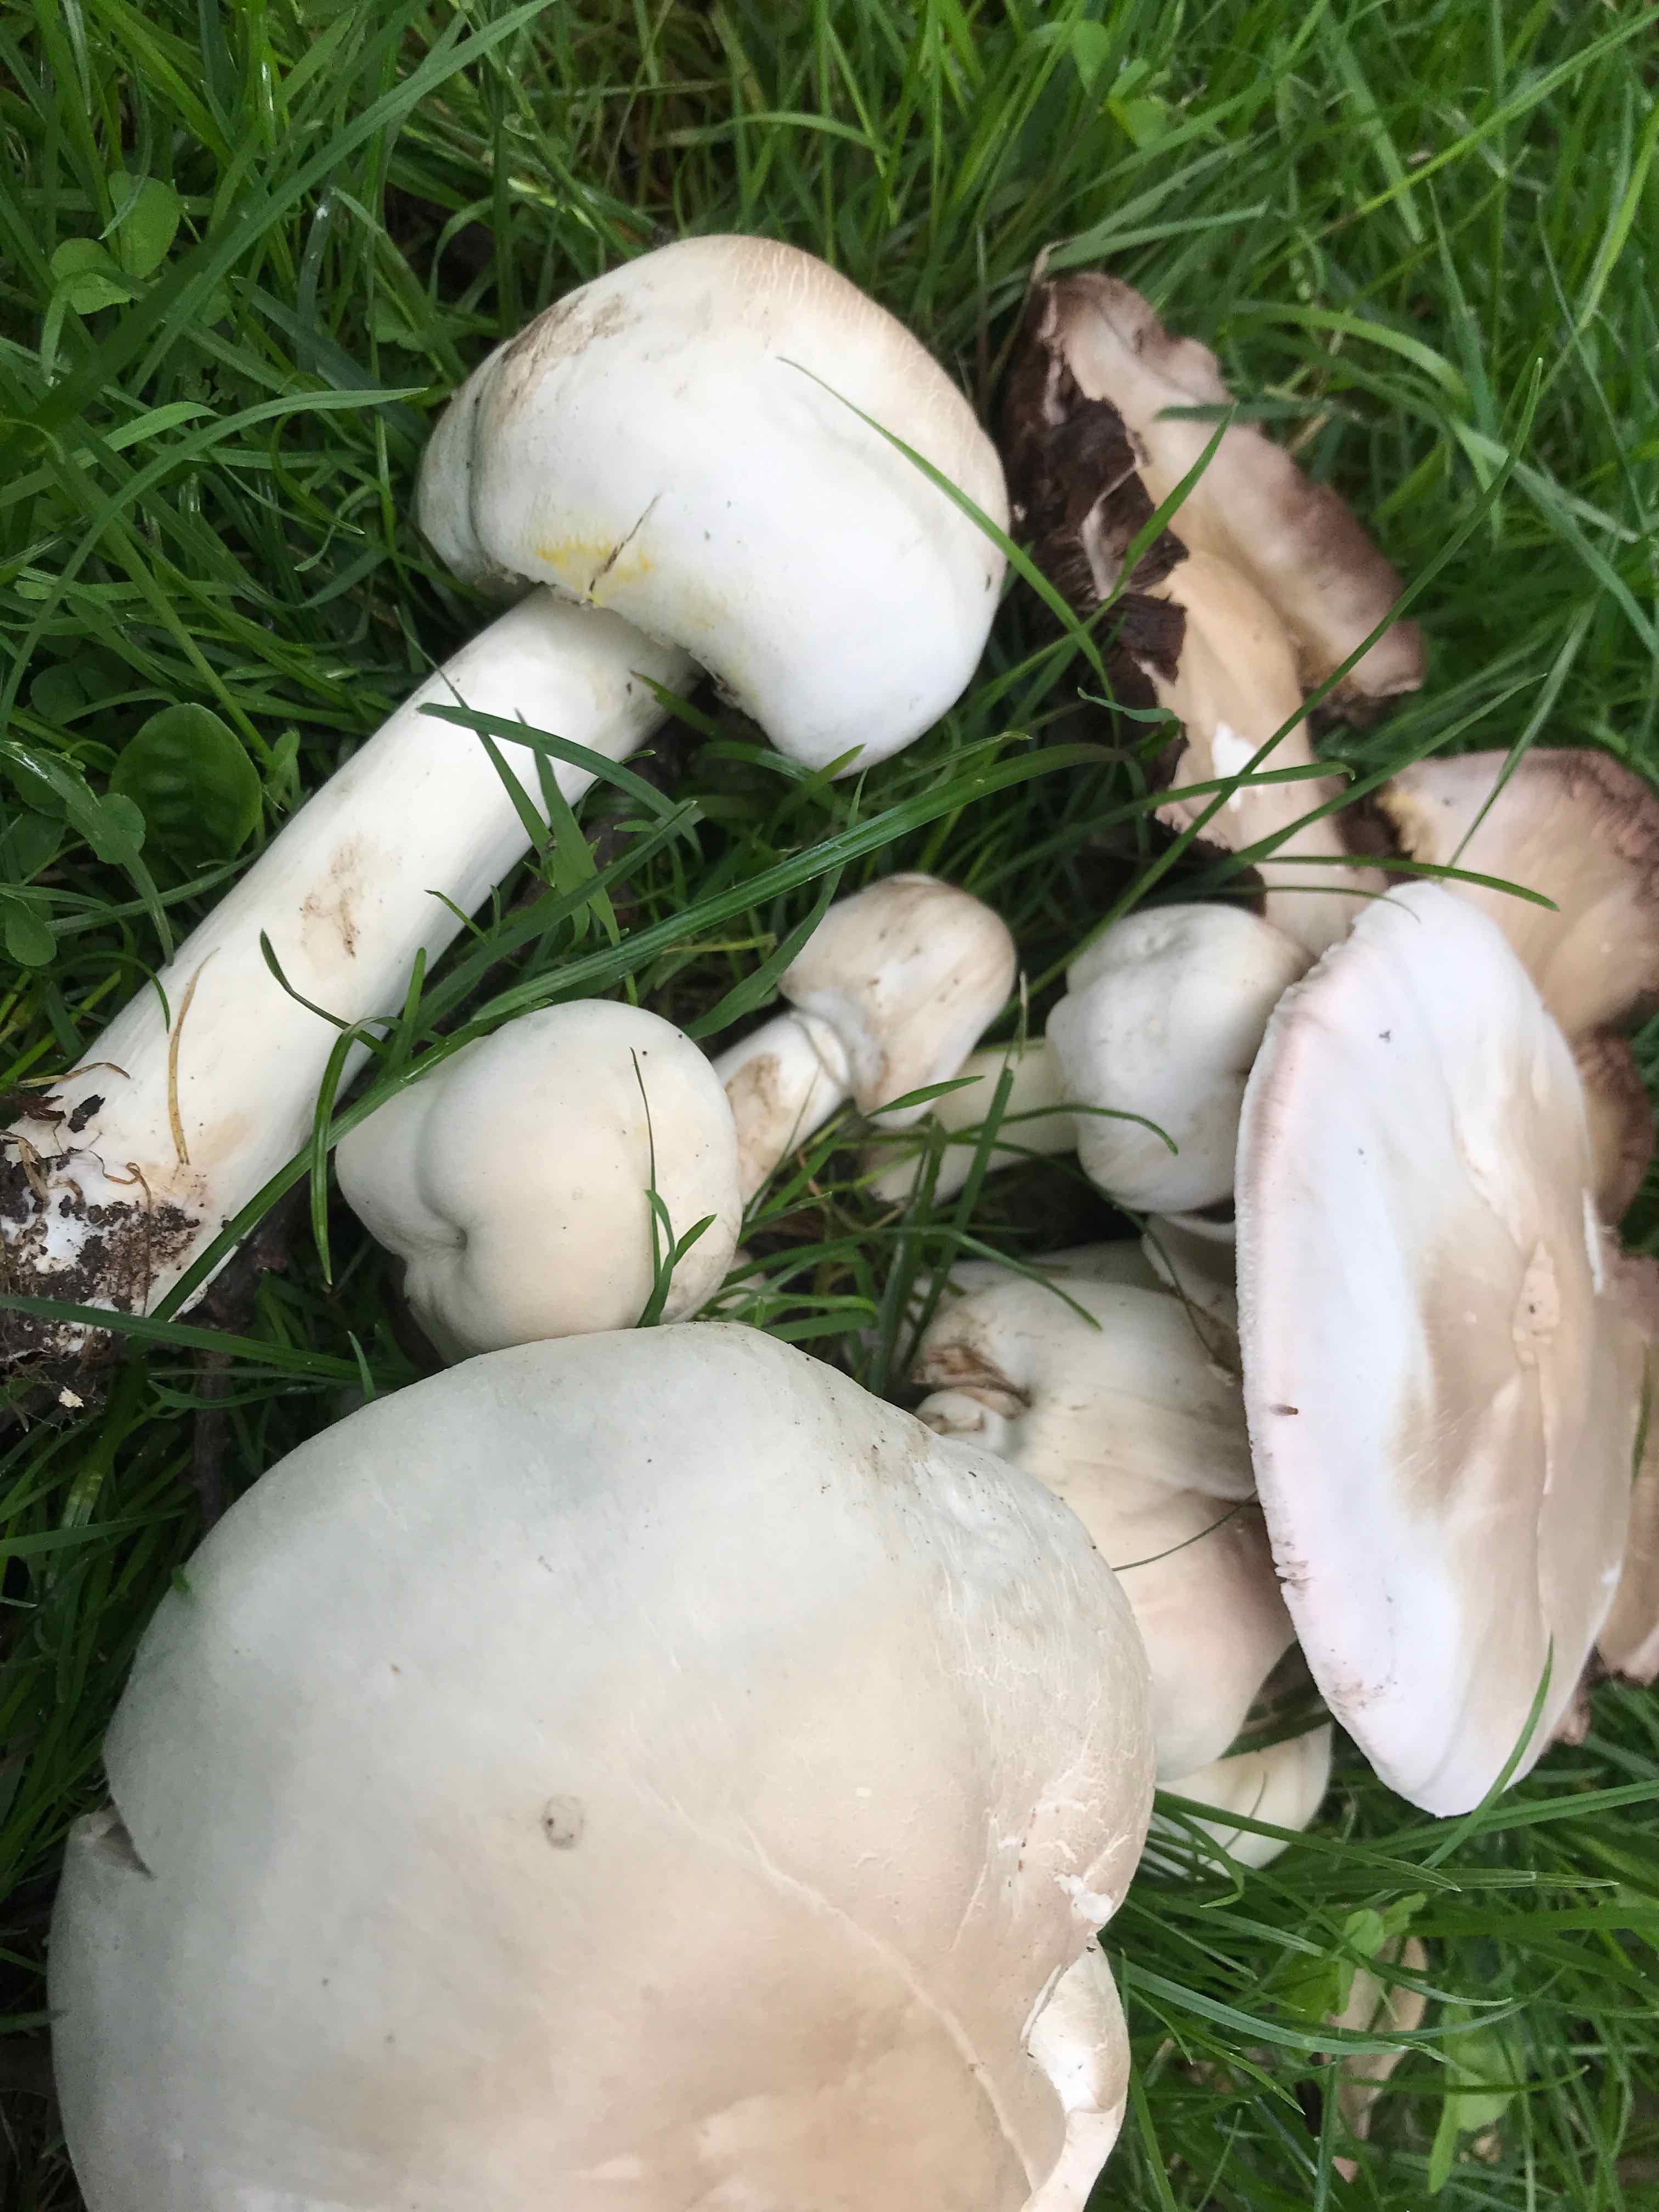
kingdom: Fungi
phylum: Basidiomycota
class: Agaricomycetes
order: Agaricales
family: Agaricaceae
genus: Agaricus
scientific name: Agaricus xanthodermus
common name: karbol-champignon
